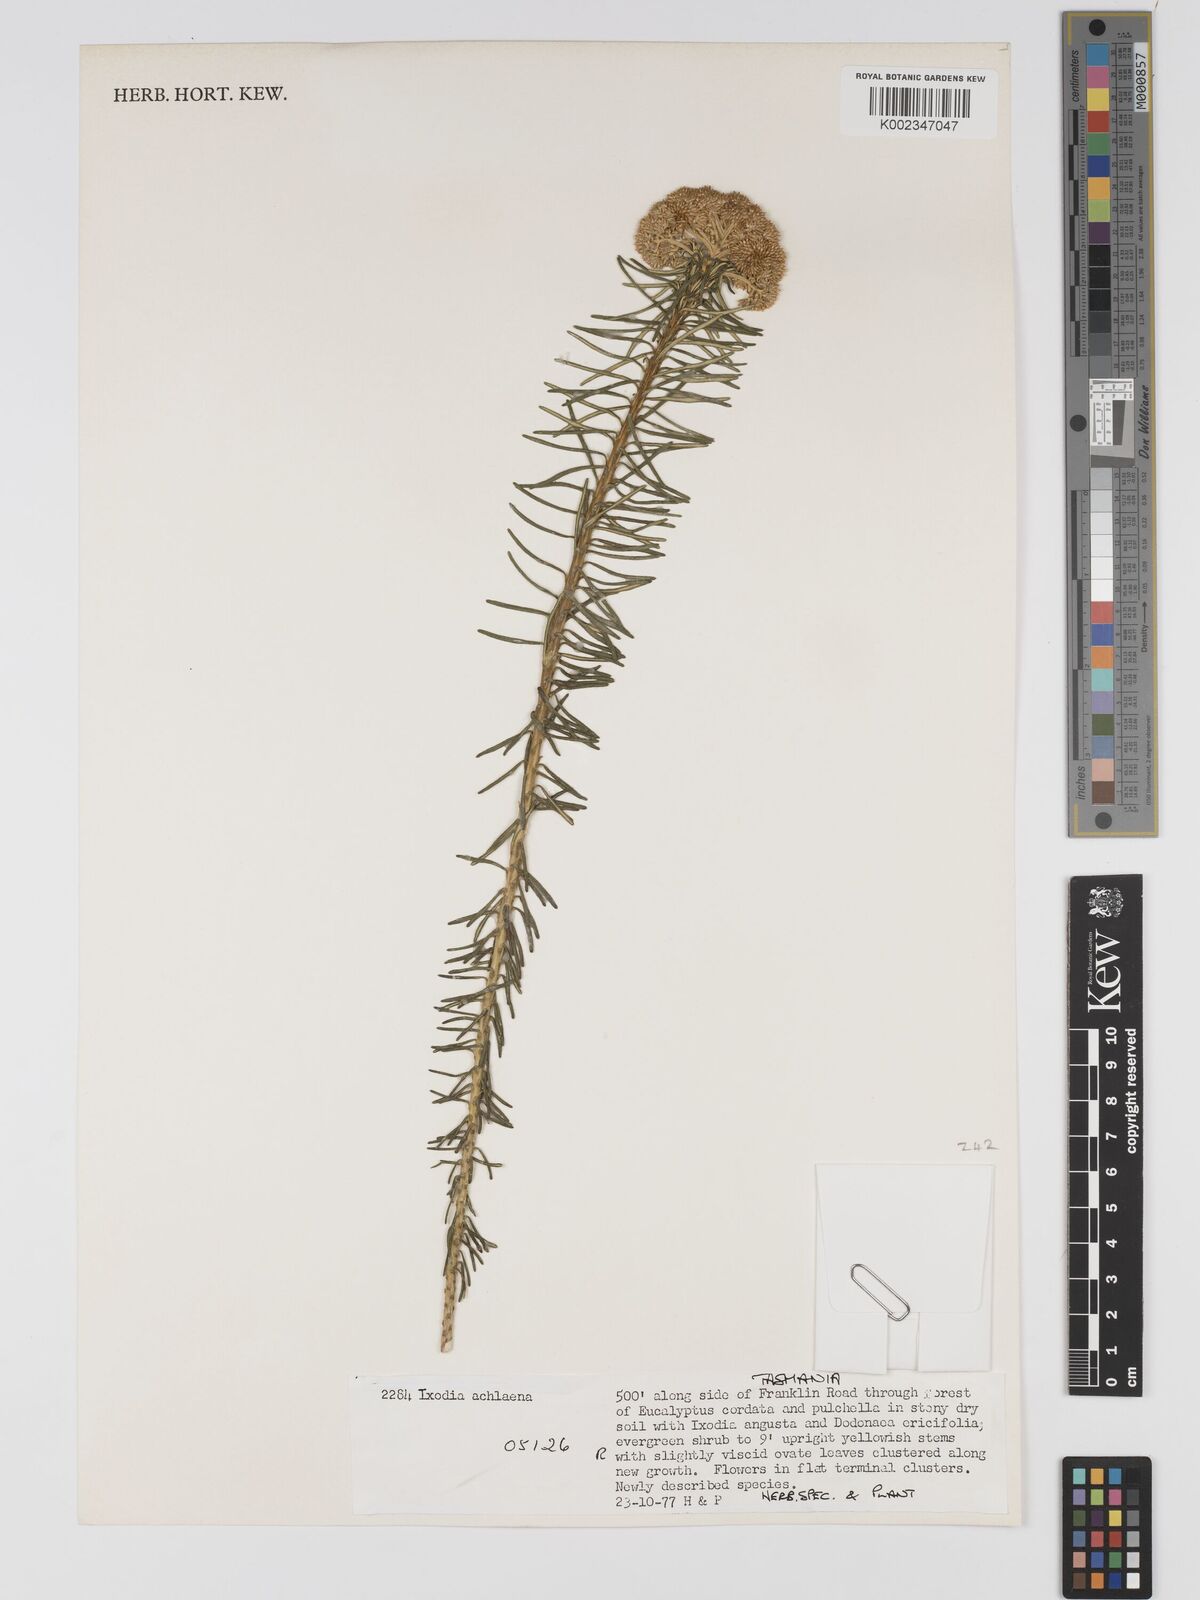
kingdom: Plantae
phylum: Tracheophyta
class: Magnoliopsida
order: Asterales
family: Asteraceae
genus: Odixia
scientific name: Odixia achlaena
